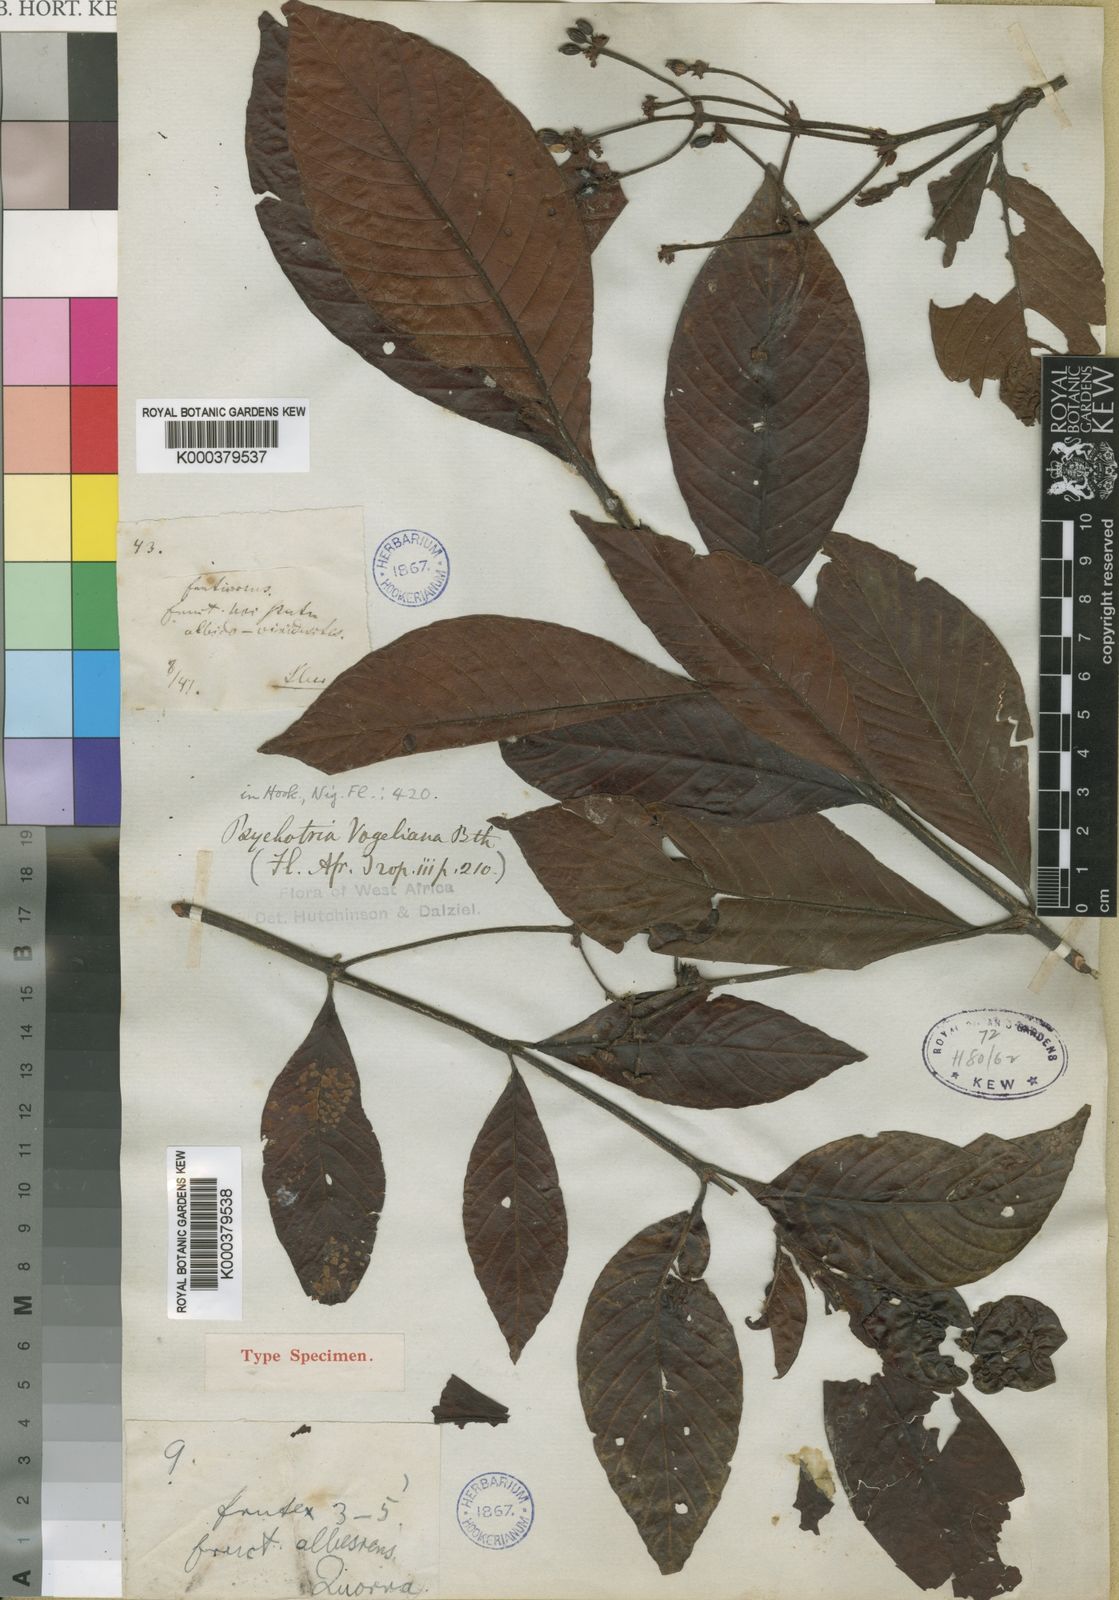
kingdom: Plantae
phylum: Tracheophyta
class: Magnoliopsida
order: Gentianales
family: Rubiaceae
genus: Psychotria
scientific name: Psychotria vogeliana
